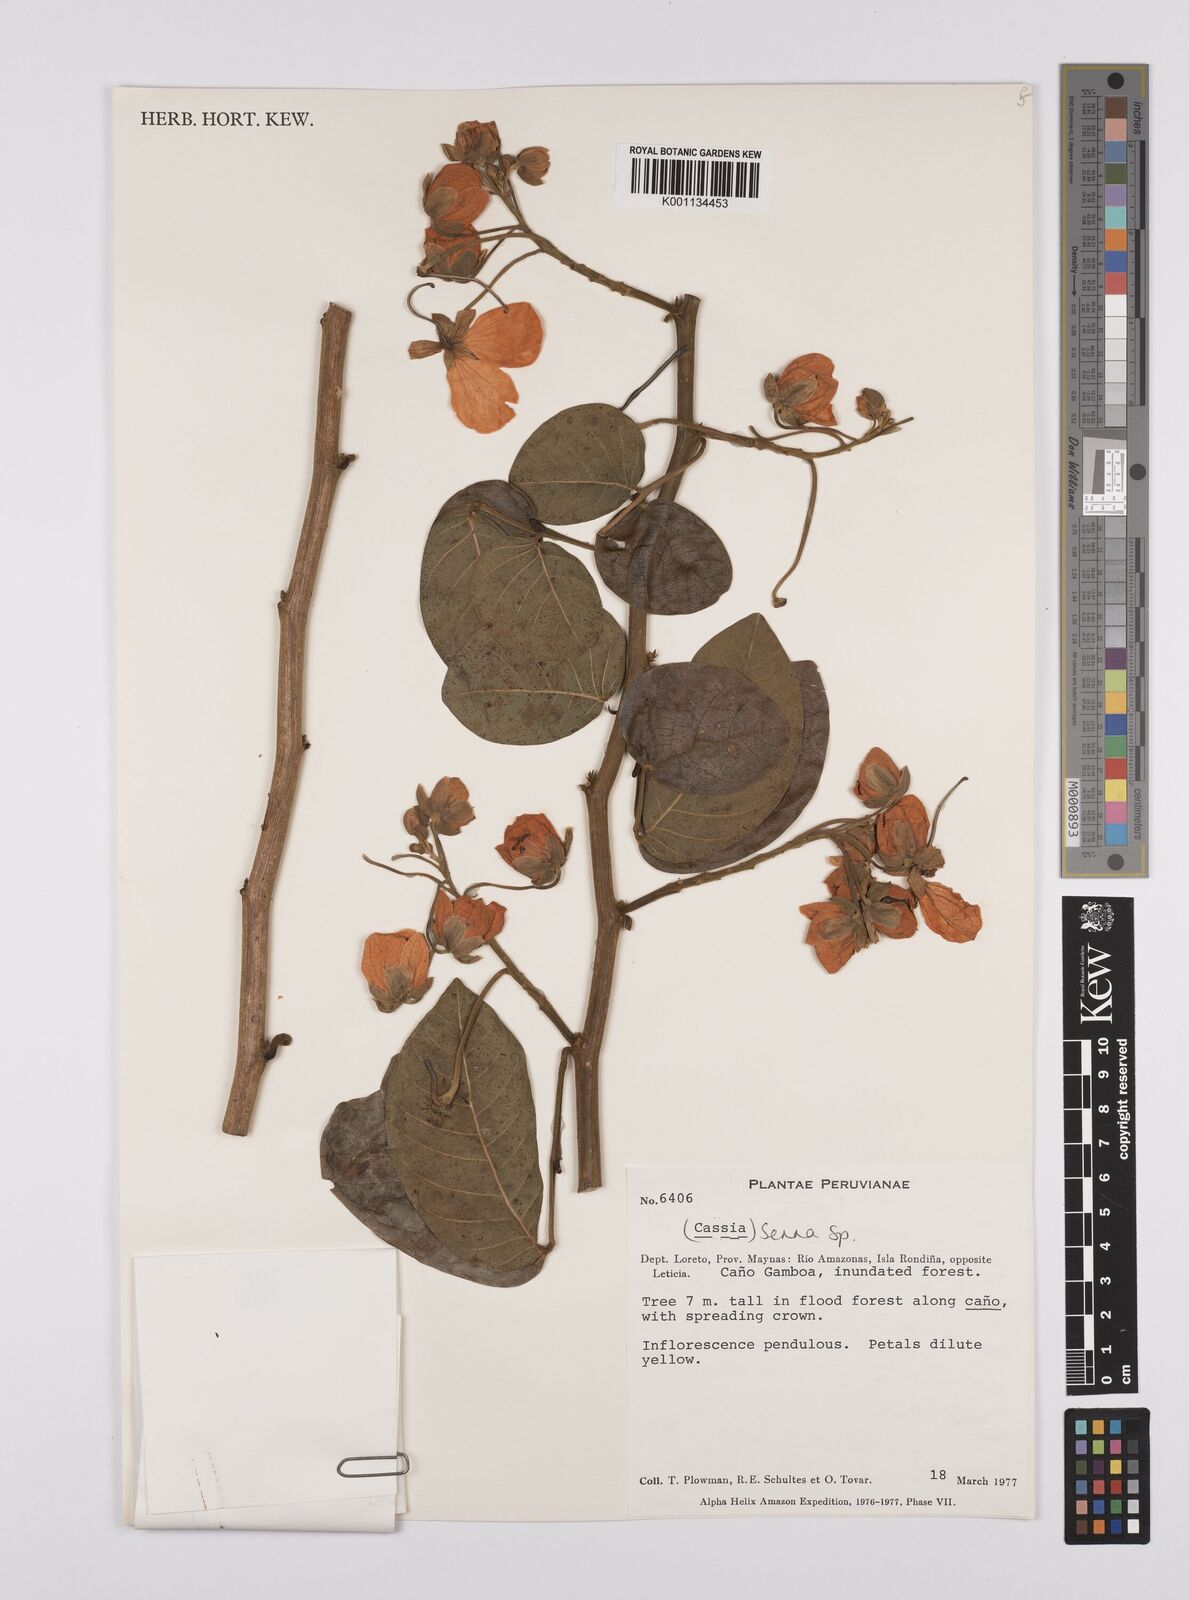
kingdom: Plantae
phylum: Tracheophyta
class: Magnoliopsida
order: Fabales
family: Fabaceae
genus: Senna
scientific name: Senna
